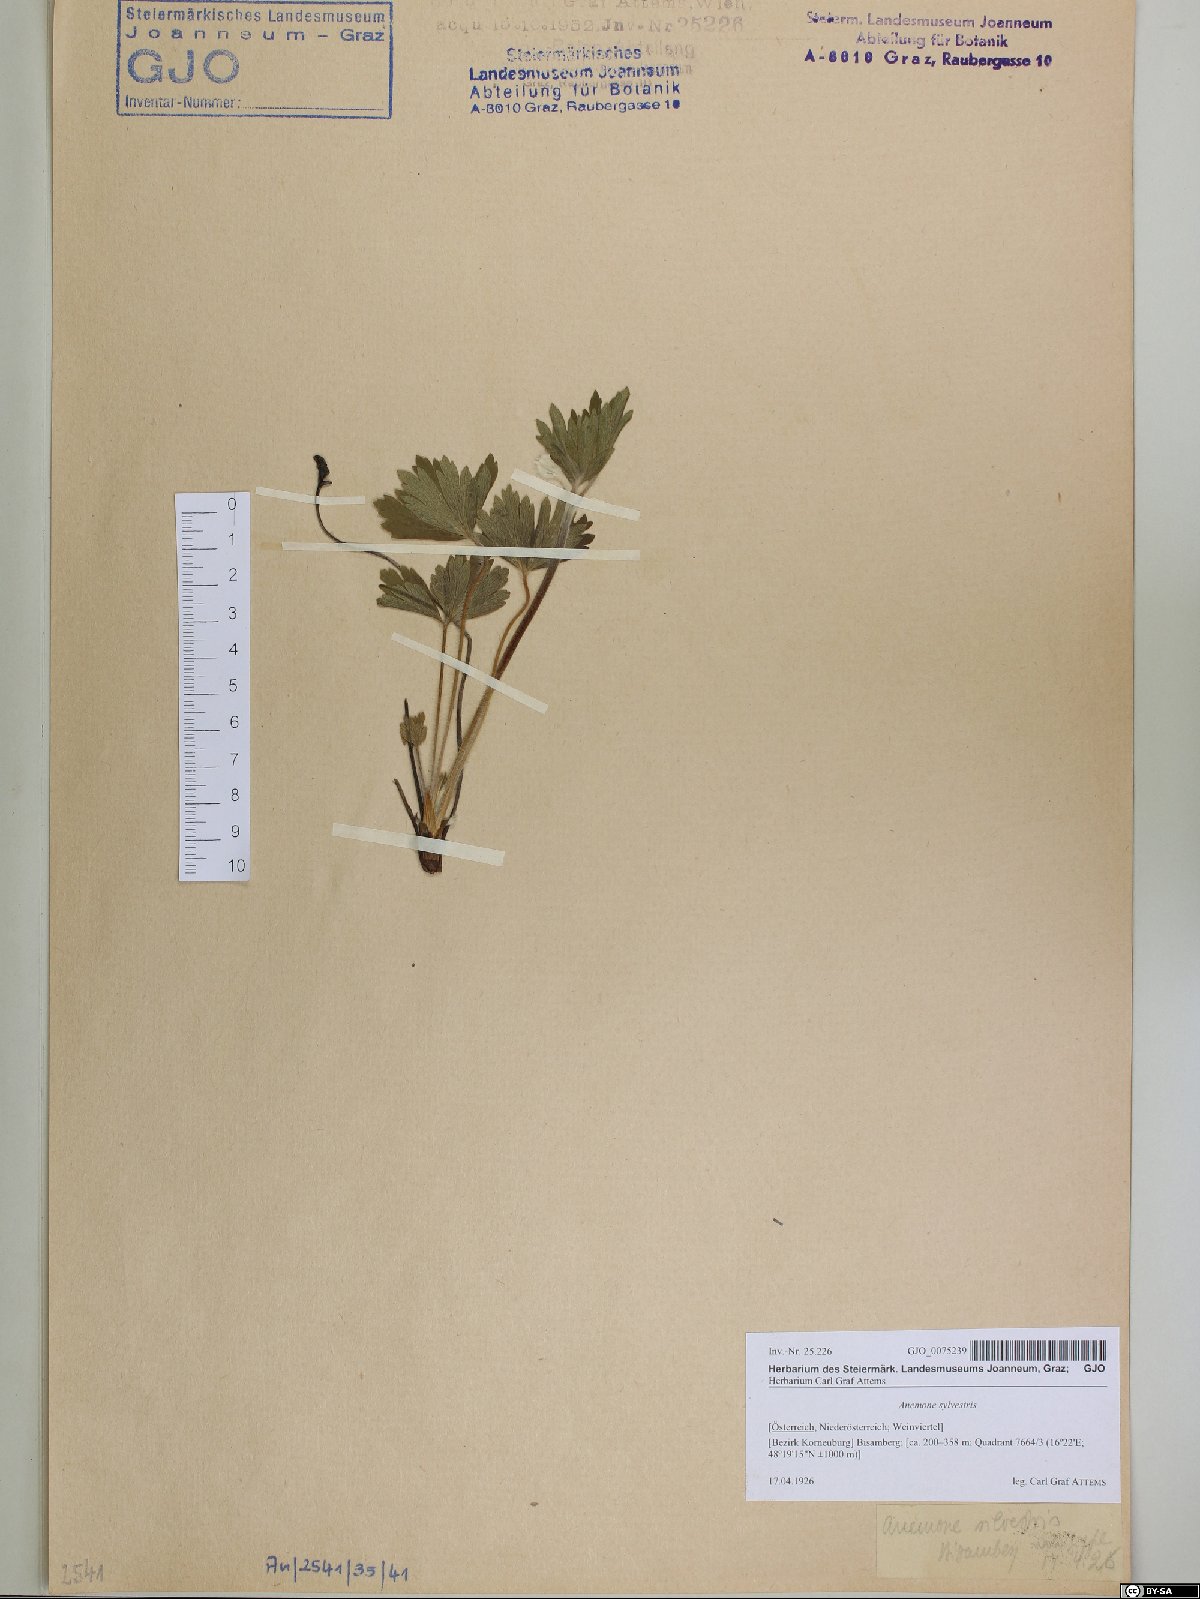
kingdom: Plantae
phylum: Tracheophyta
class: Magnoliopsida
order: Ranunculales
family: Ranunculaceae
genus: Anemone
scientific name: Anemone sylvestris
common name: Snowdrop anemone
